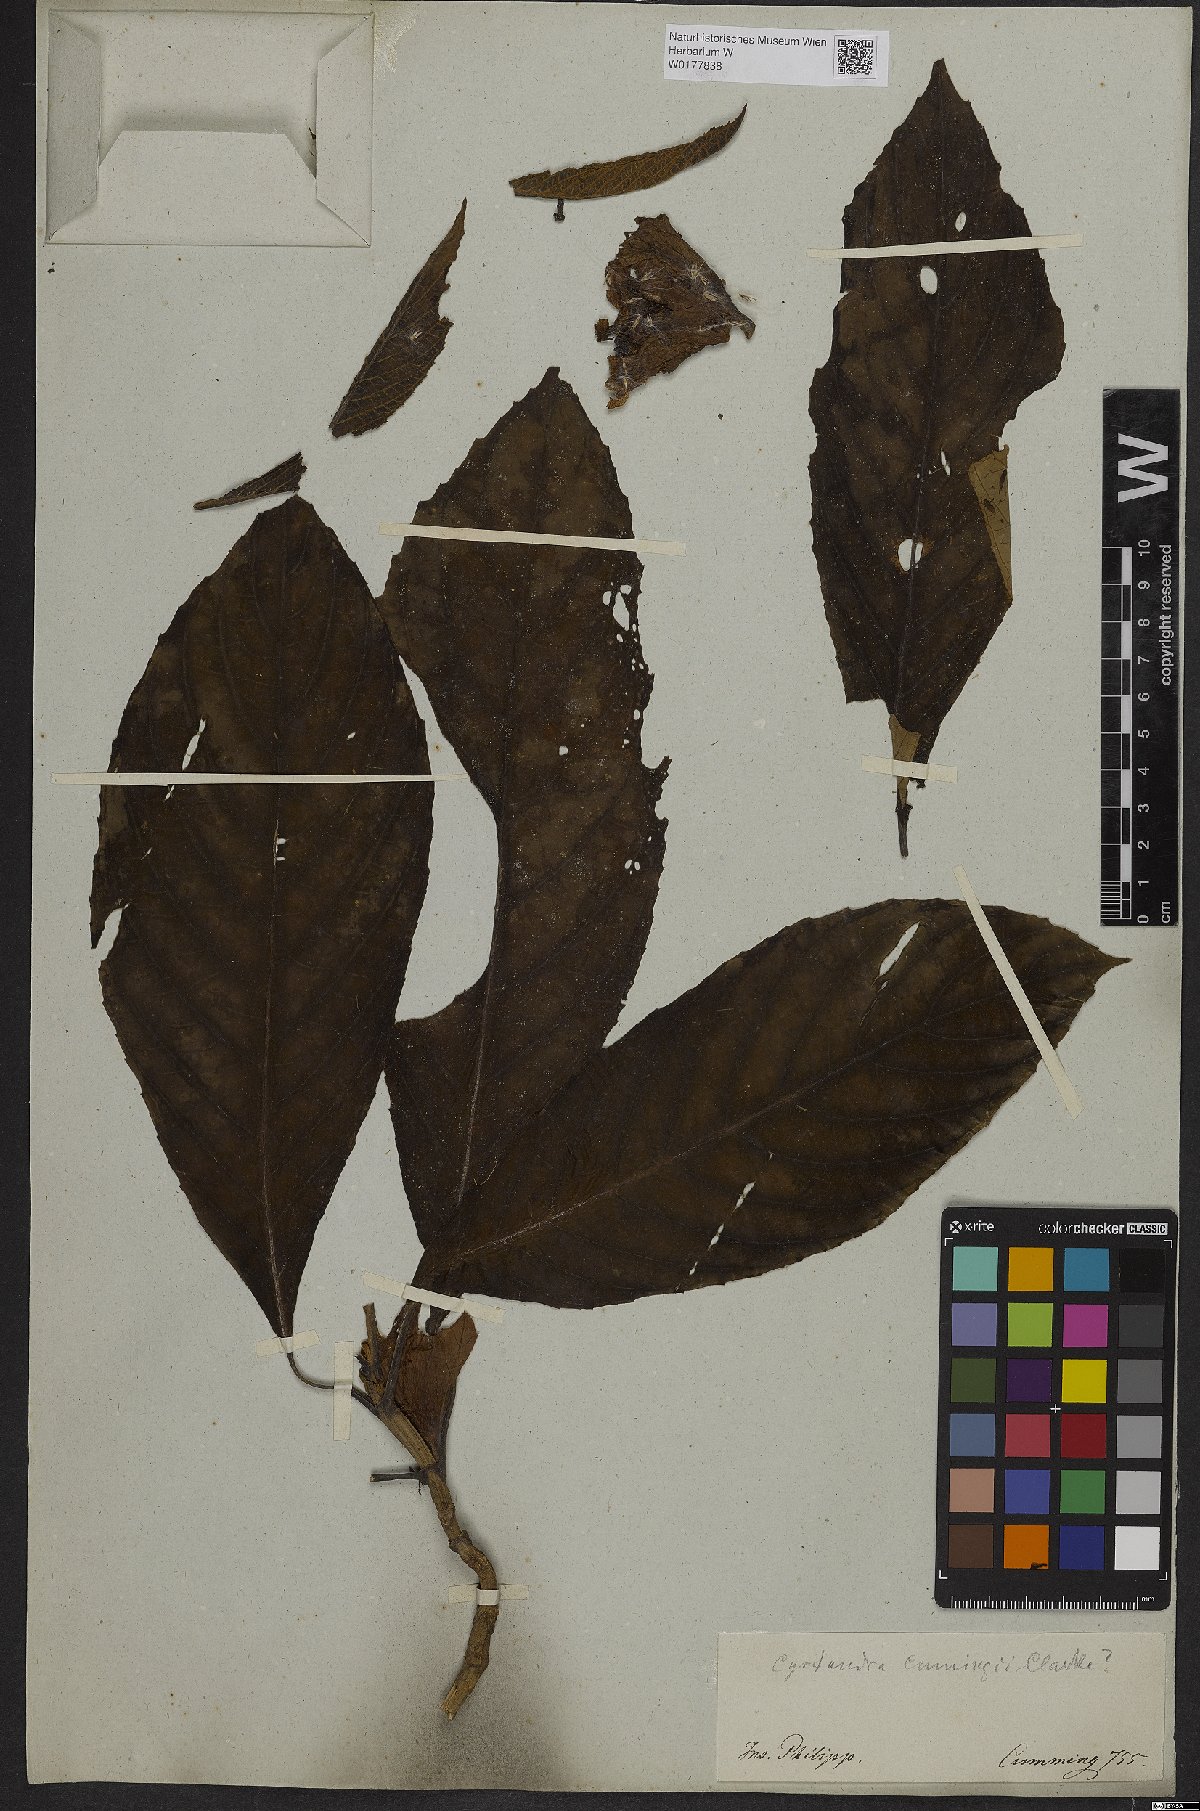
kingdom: Plantae
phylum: Tracheophyta
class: Magnoliopsida
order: Lamiales
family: Gesneriaceae
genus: Cyrtandra
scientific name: Cyrtandra
